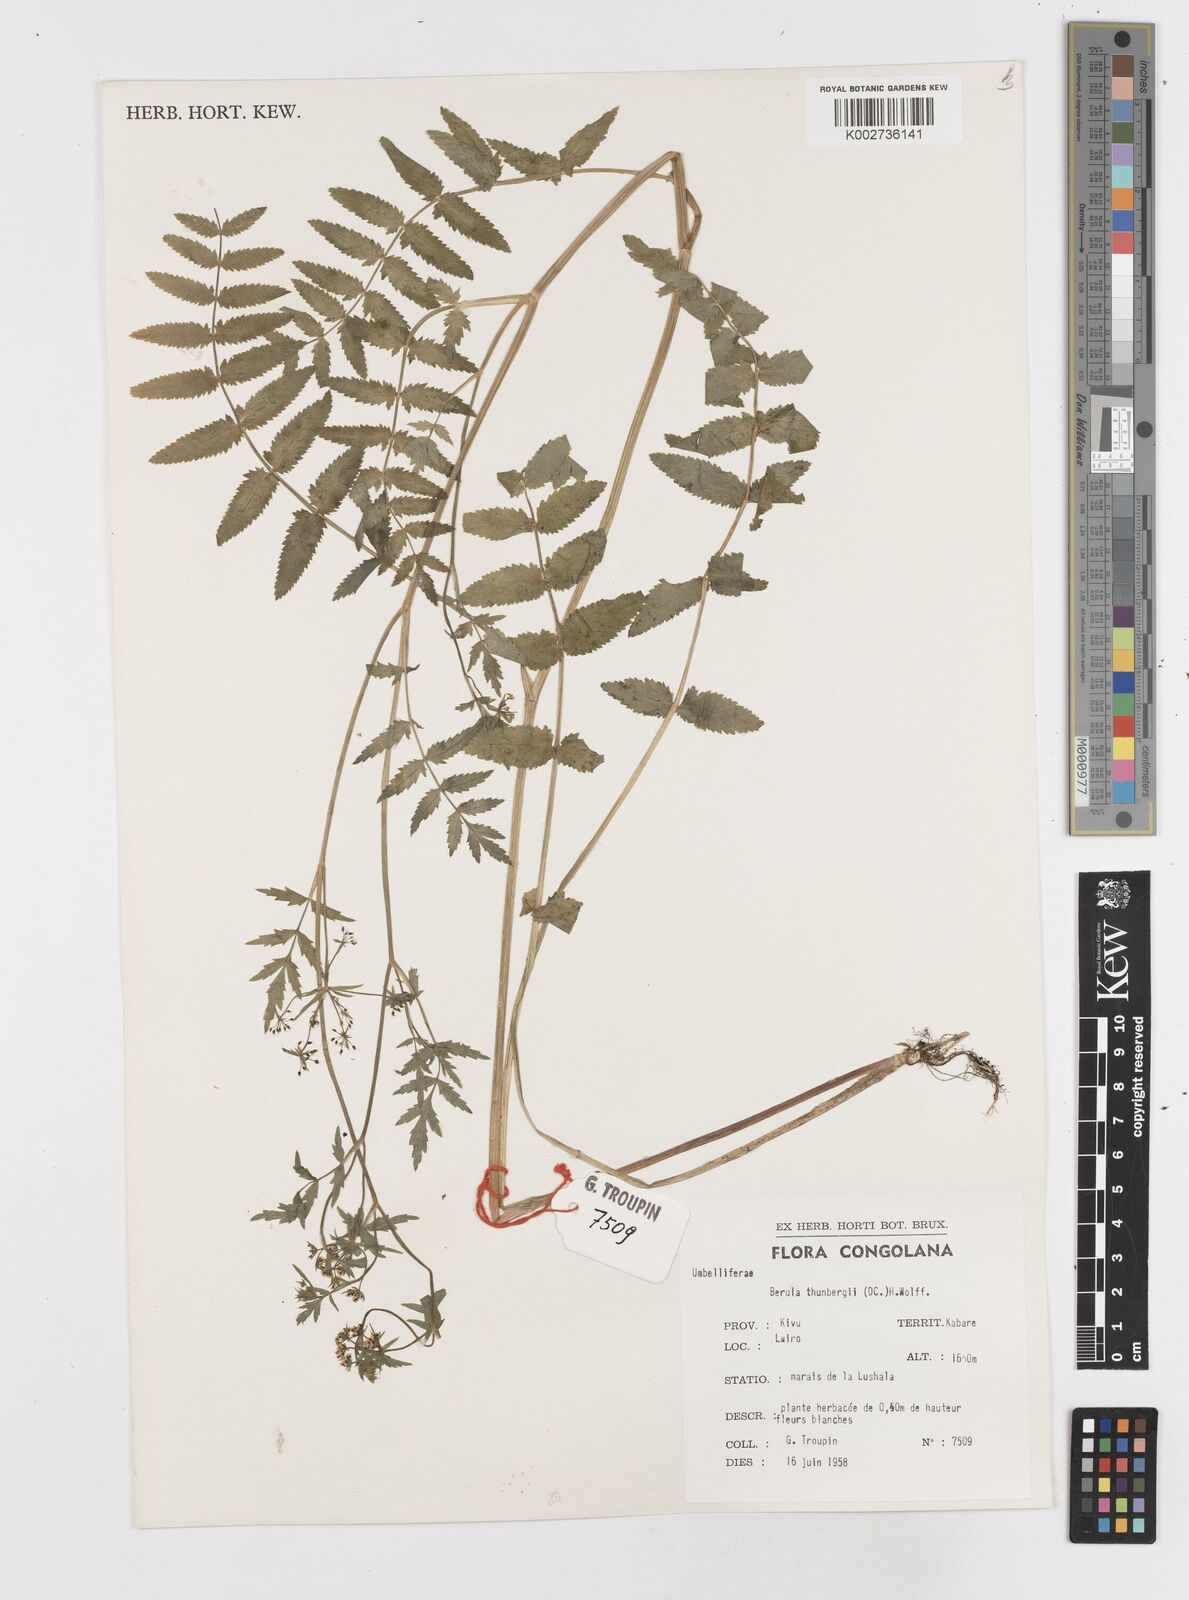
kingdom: Plantae
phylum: Tracheophyta
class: Magnoliopsida
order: Apiales
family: Apiaceae
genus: Berula
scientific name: Berula erecta
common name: Lesser water-parsnip
